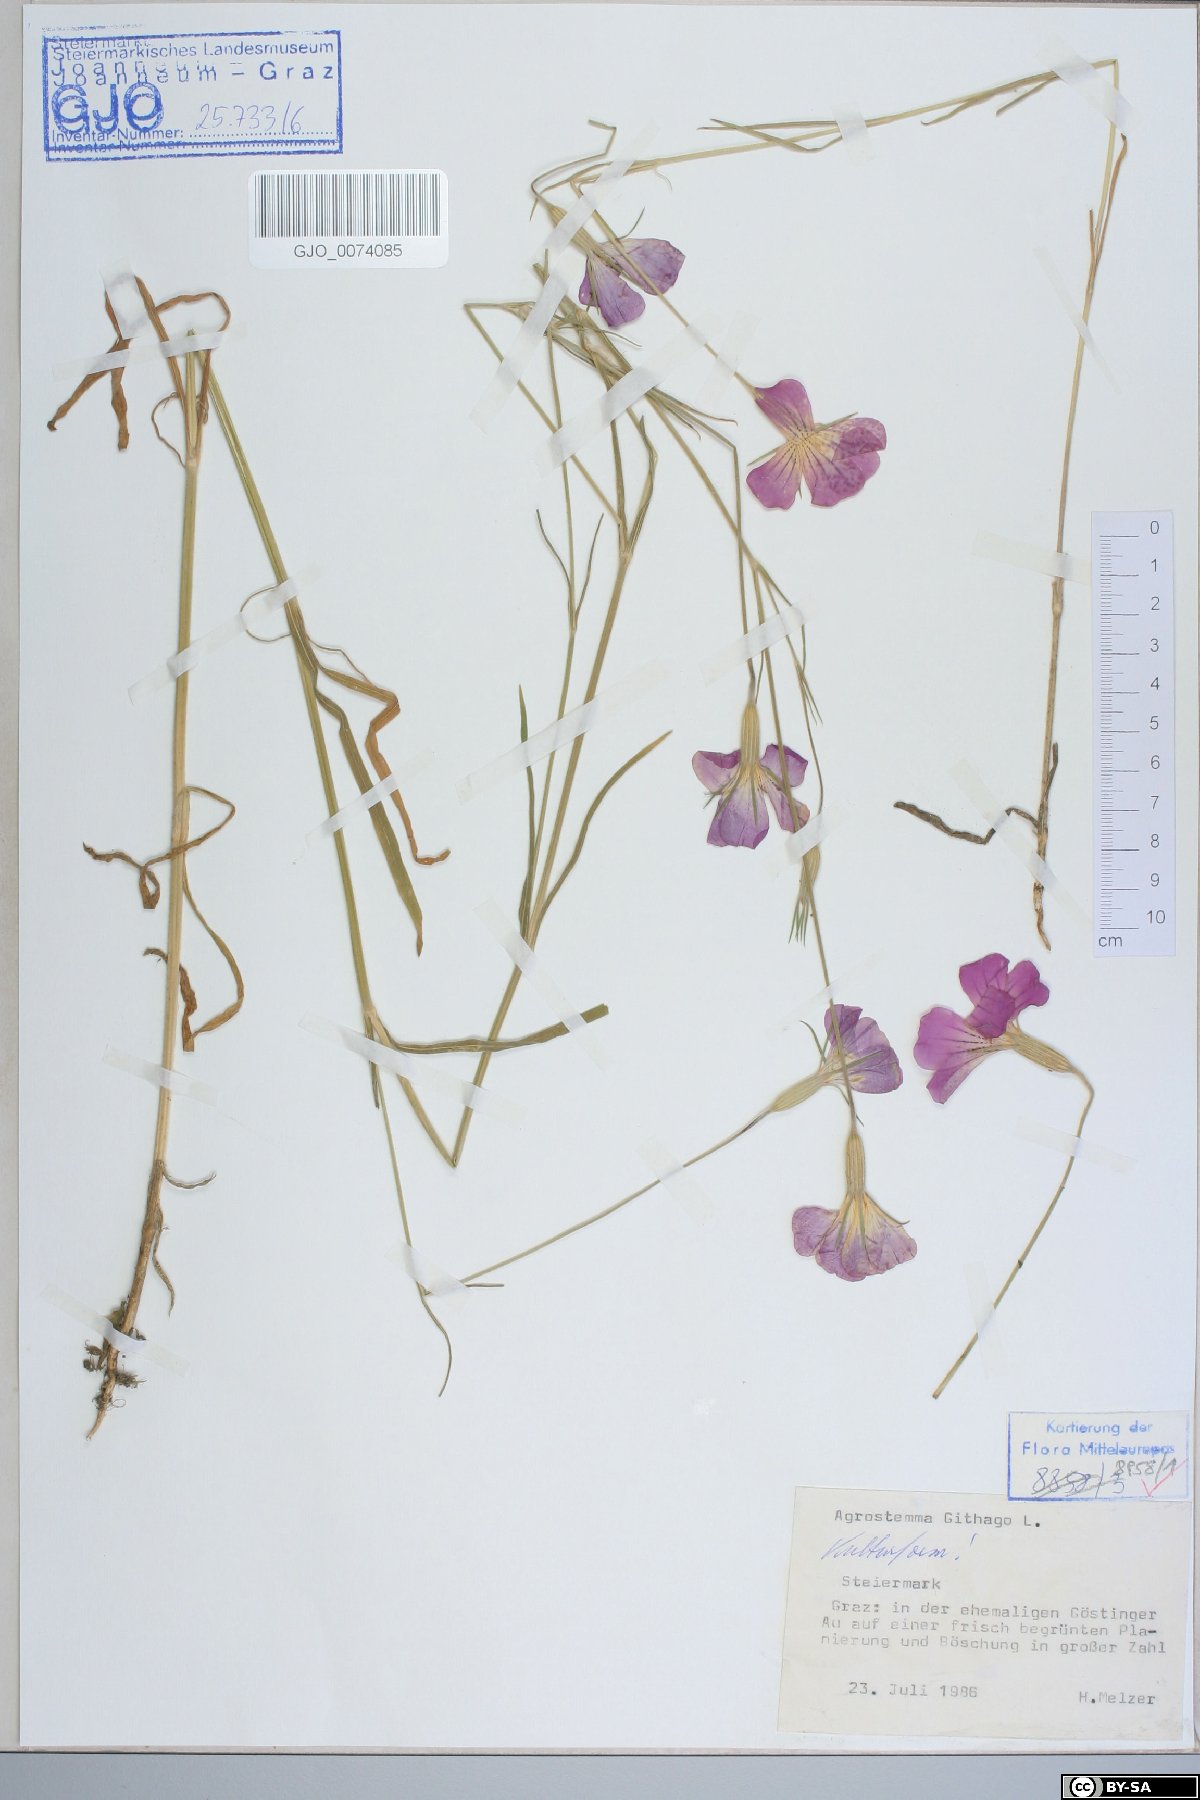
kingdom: Plantae
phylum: Tracheophyta
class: Magnoliopsida
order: Caryophyllales
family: Caryophyllaceae
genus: Agrostemma
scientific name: Agrostemma githago
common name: Common corncockle
